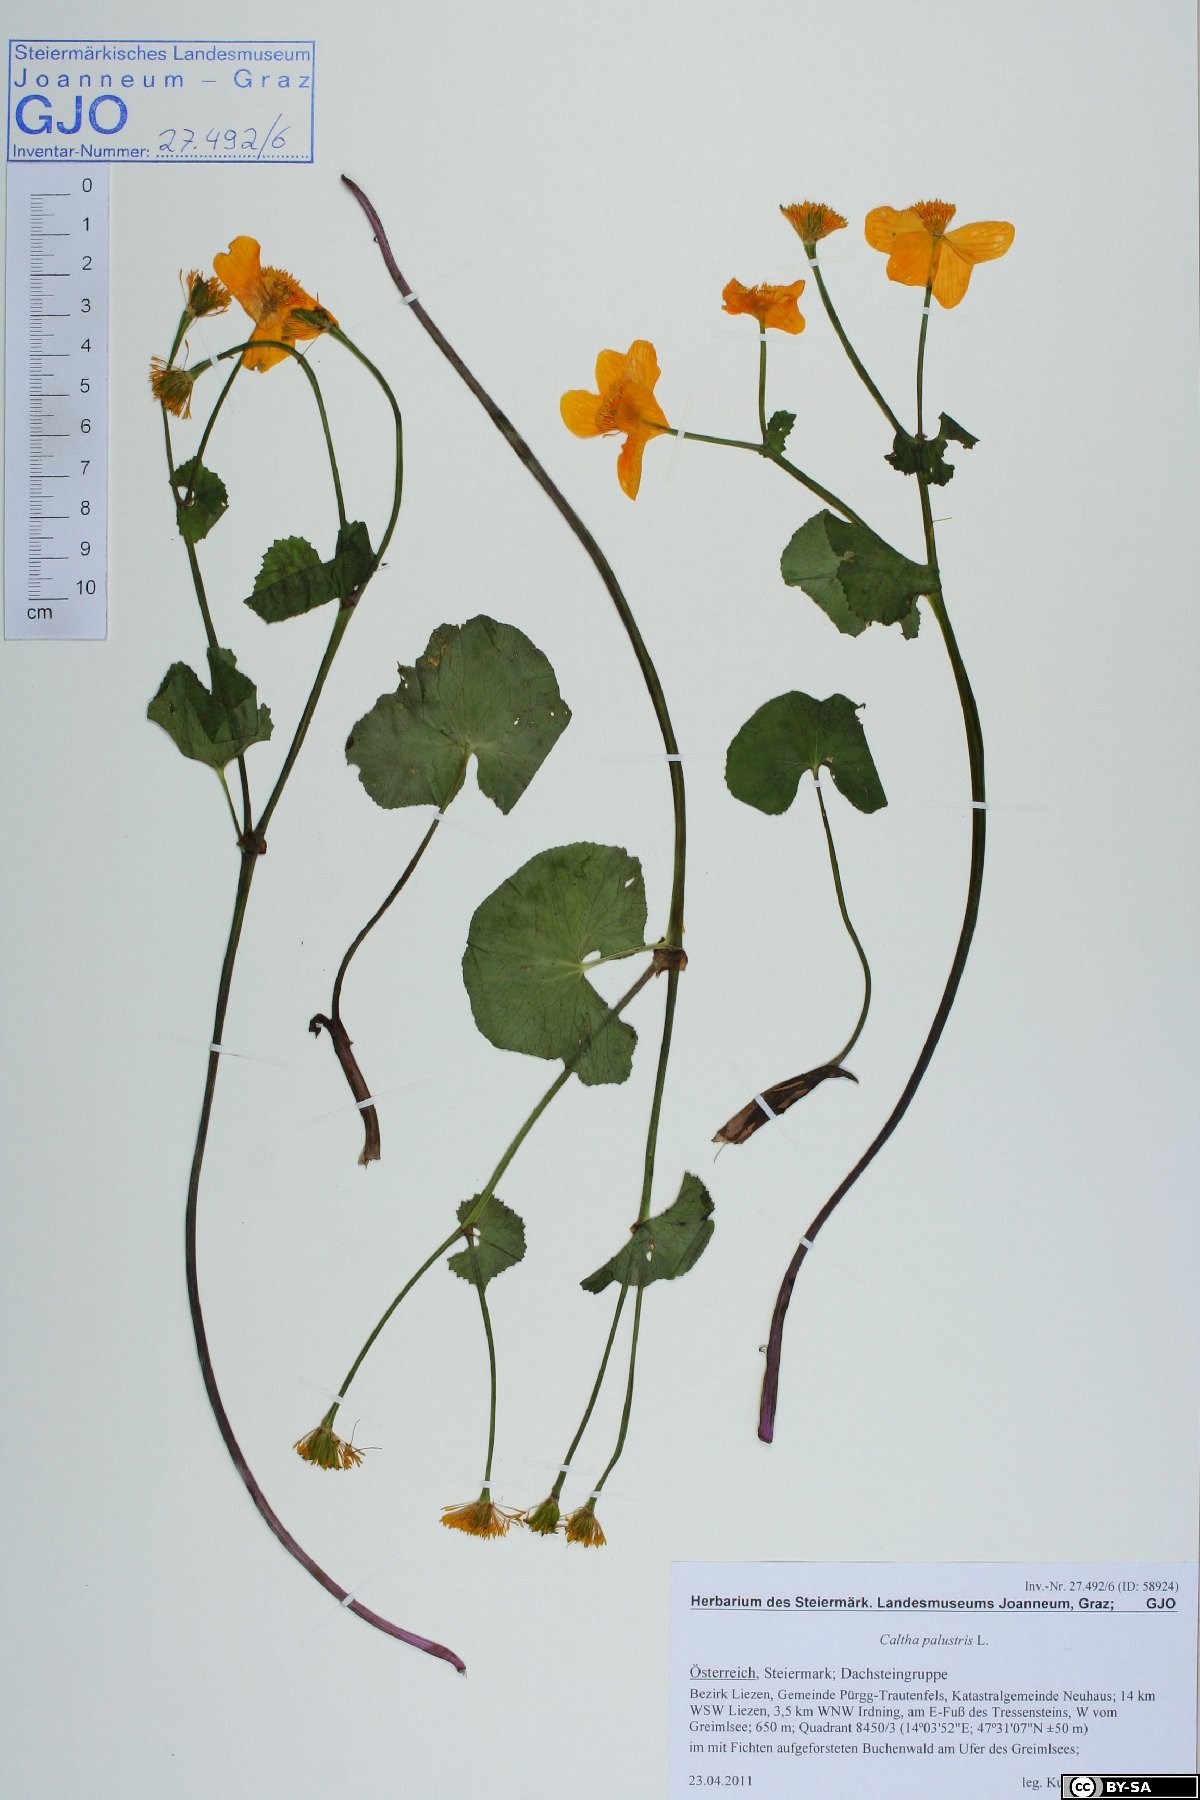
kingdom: Plantae
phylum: Tracheophyta
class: Magnoliopsida
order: Ranunculales
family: Ranunculaceae
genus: Caltha
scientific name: Caltha palustris
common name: Marsh marigold
